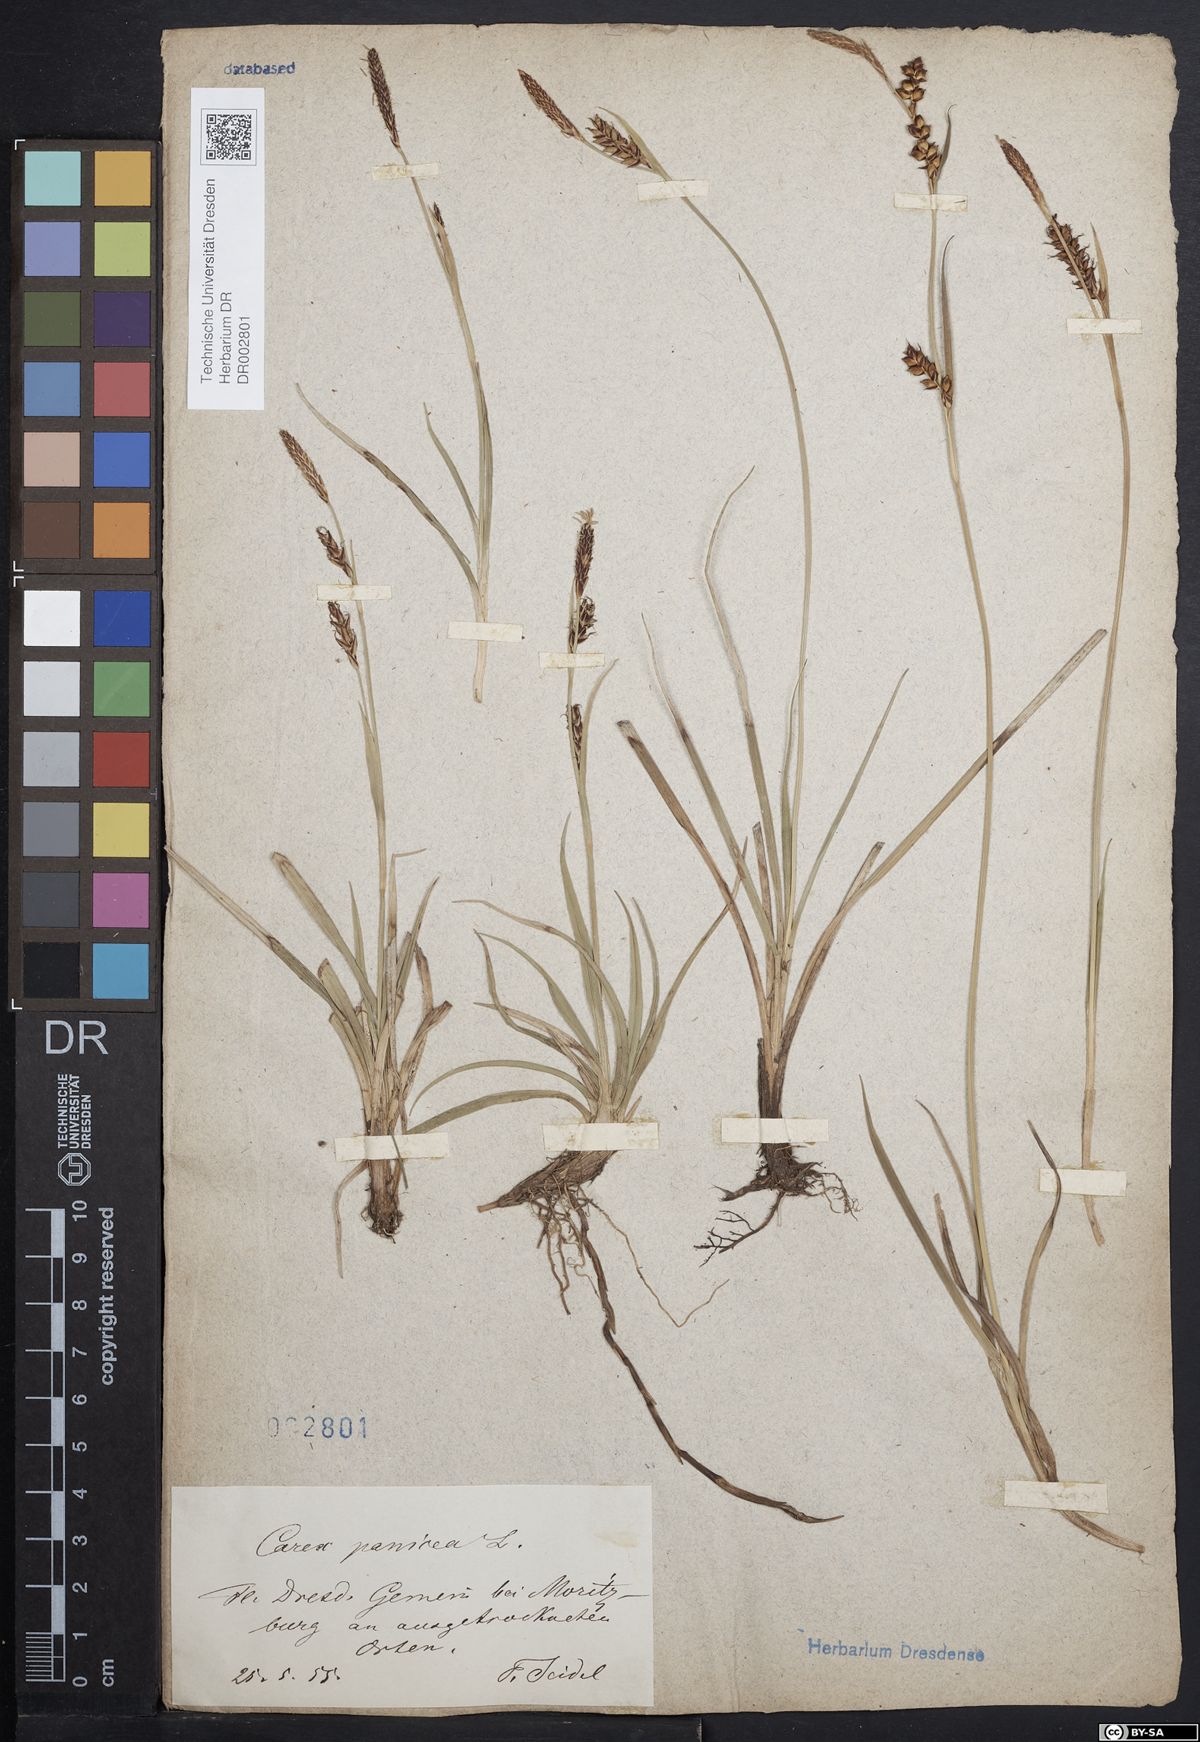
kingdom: Plantae
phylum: Tracheophyta
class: Liliopsida
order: Poales
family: Cyperaceae
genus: Carex
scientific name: Carex panicea
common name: Carnation sedge
